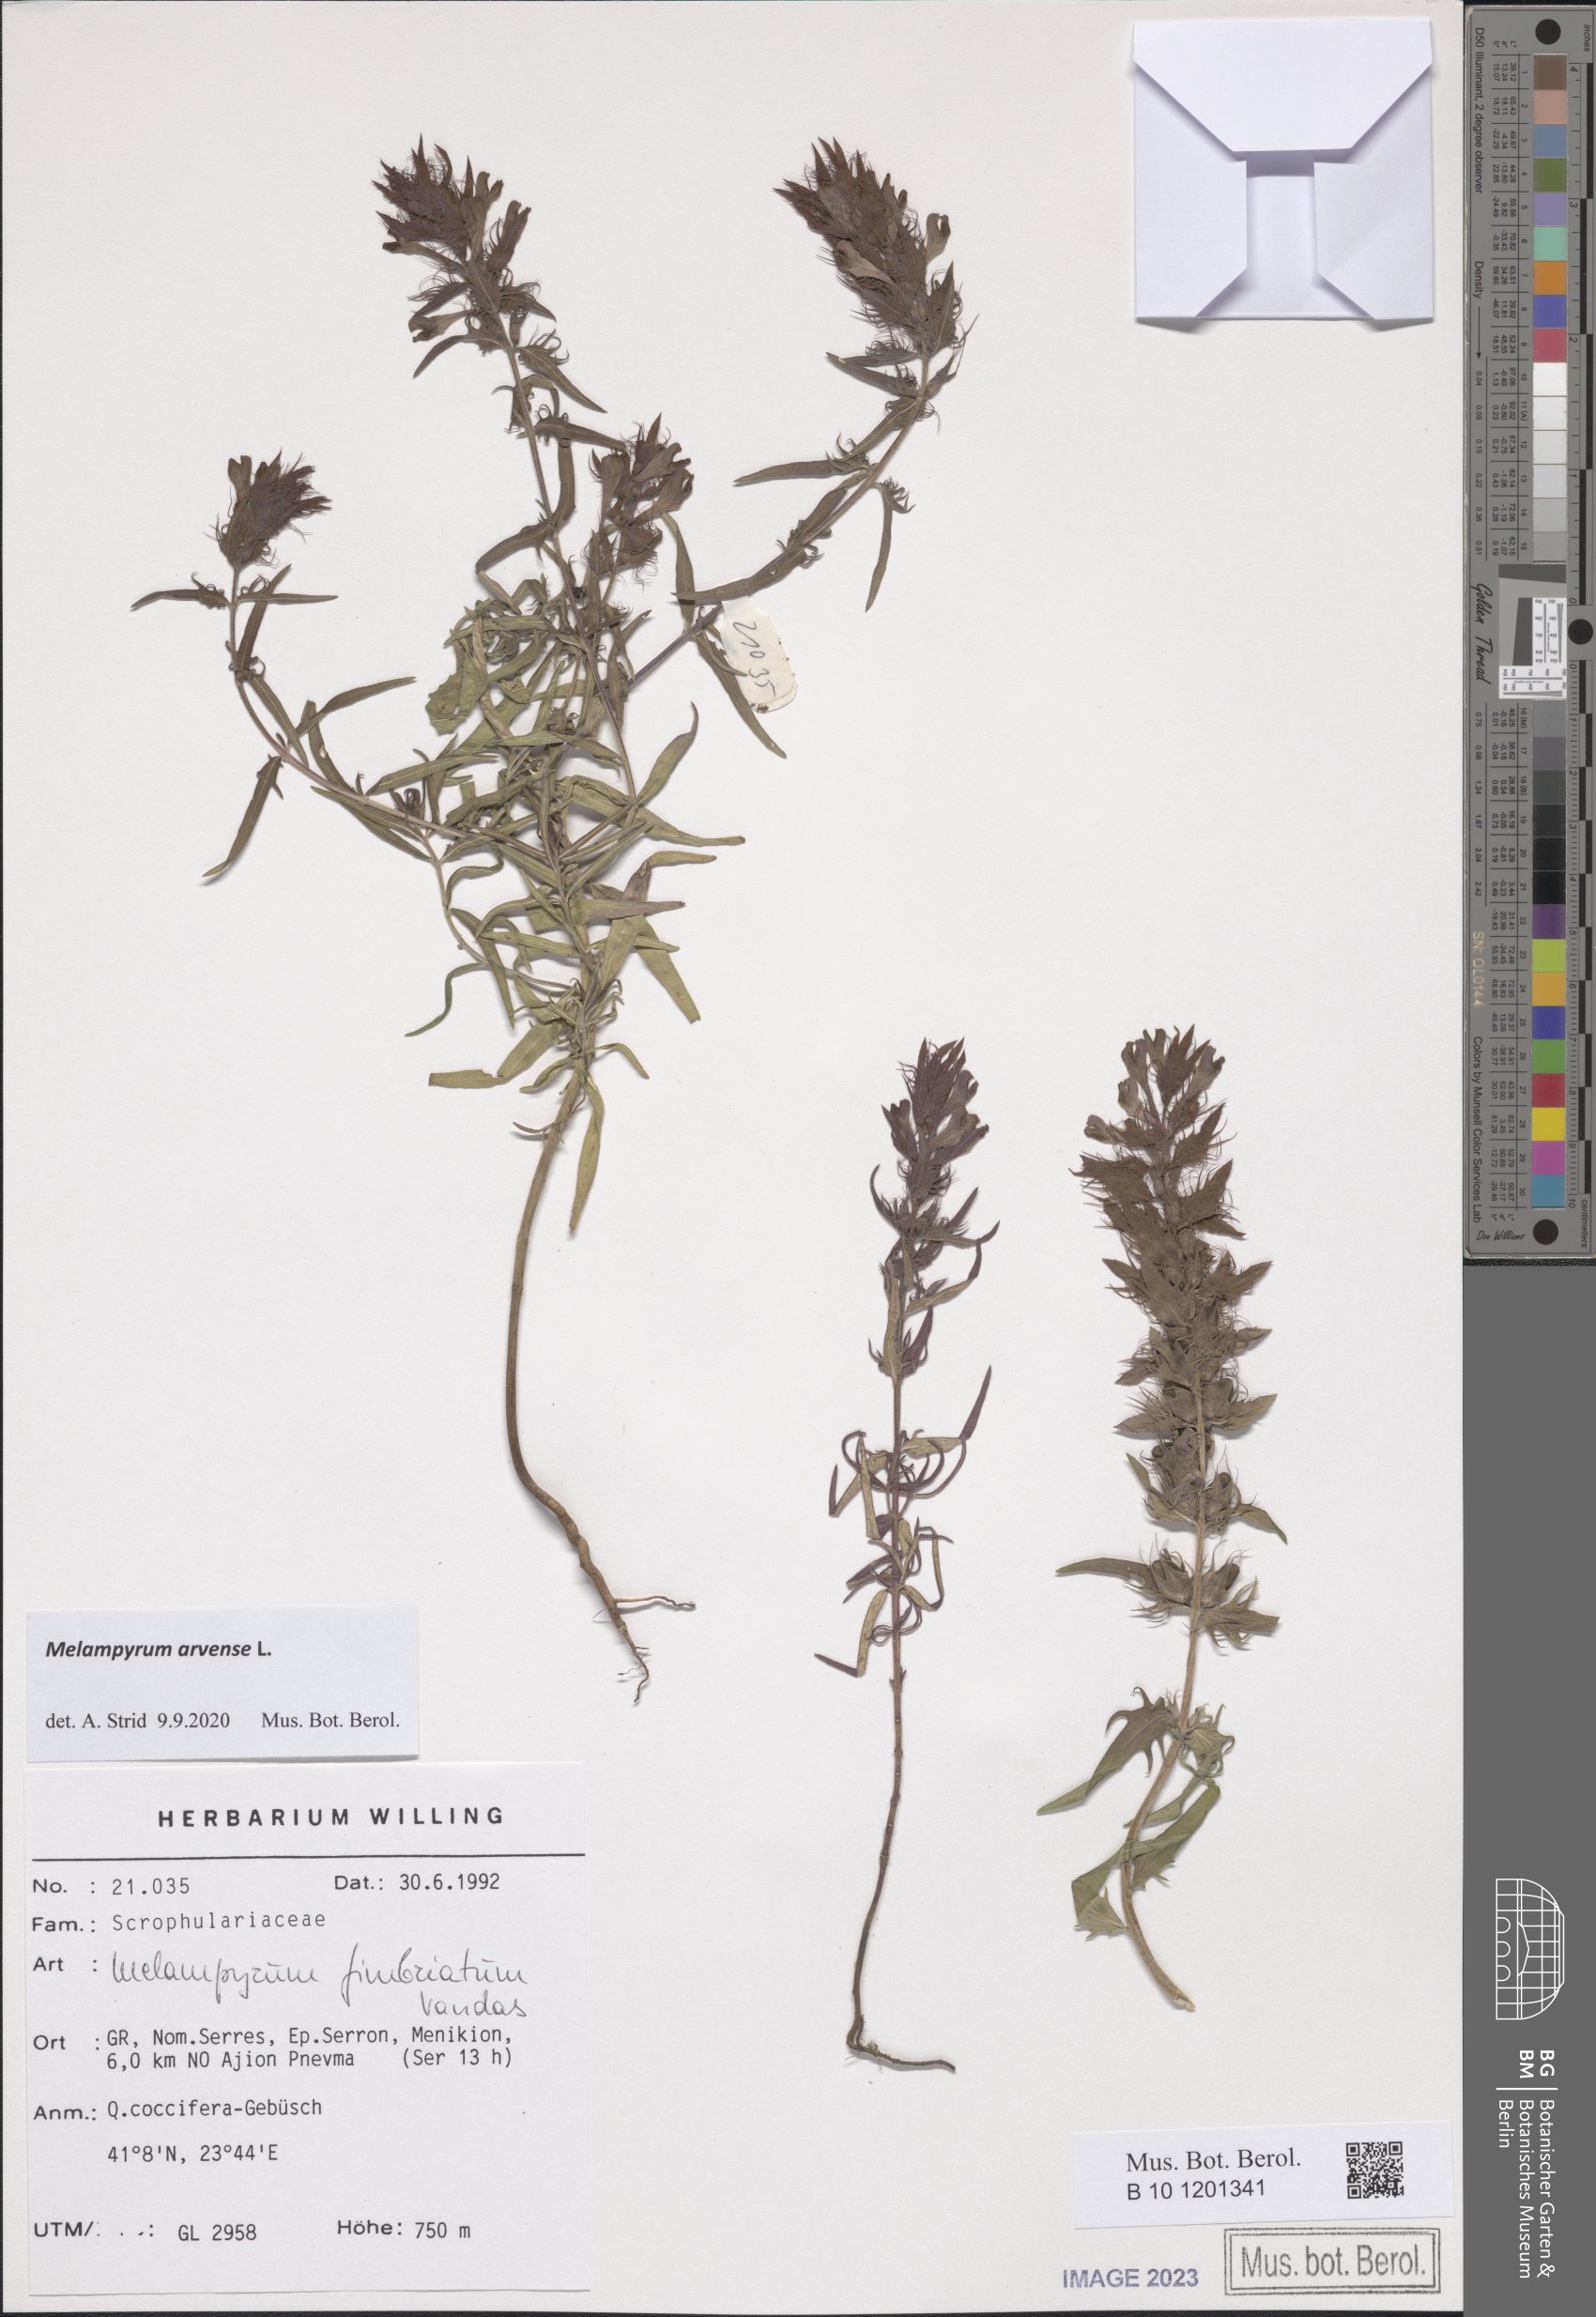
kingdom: Plantae
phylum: Tracheophyta
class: Magnoliopsida
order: Lamiales
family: Orobanchaceae
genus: Melampyrum
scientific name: Melampyrum arvense
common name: Field cow-wheat
